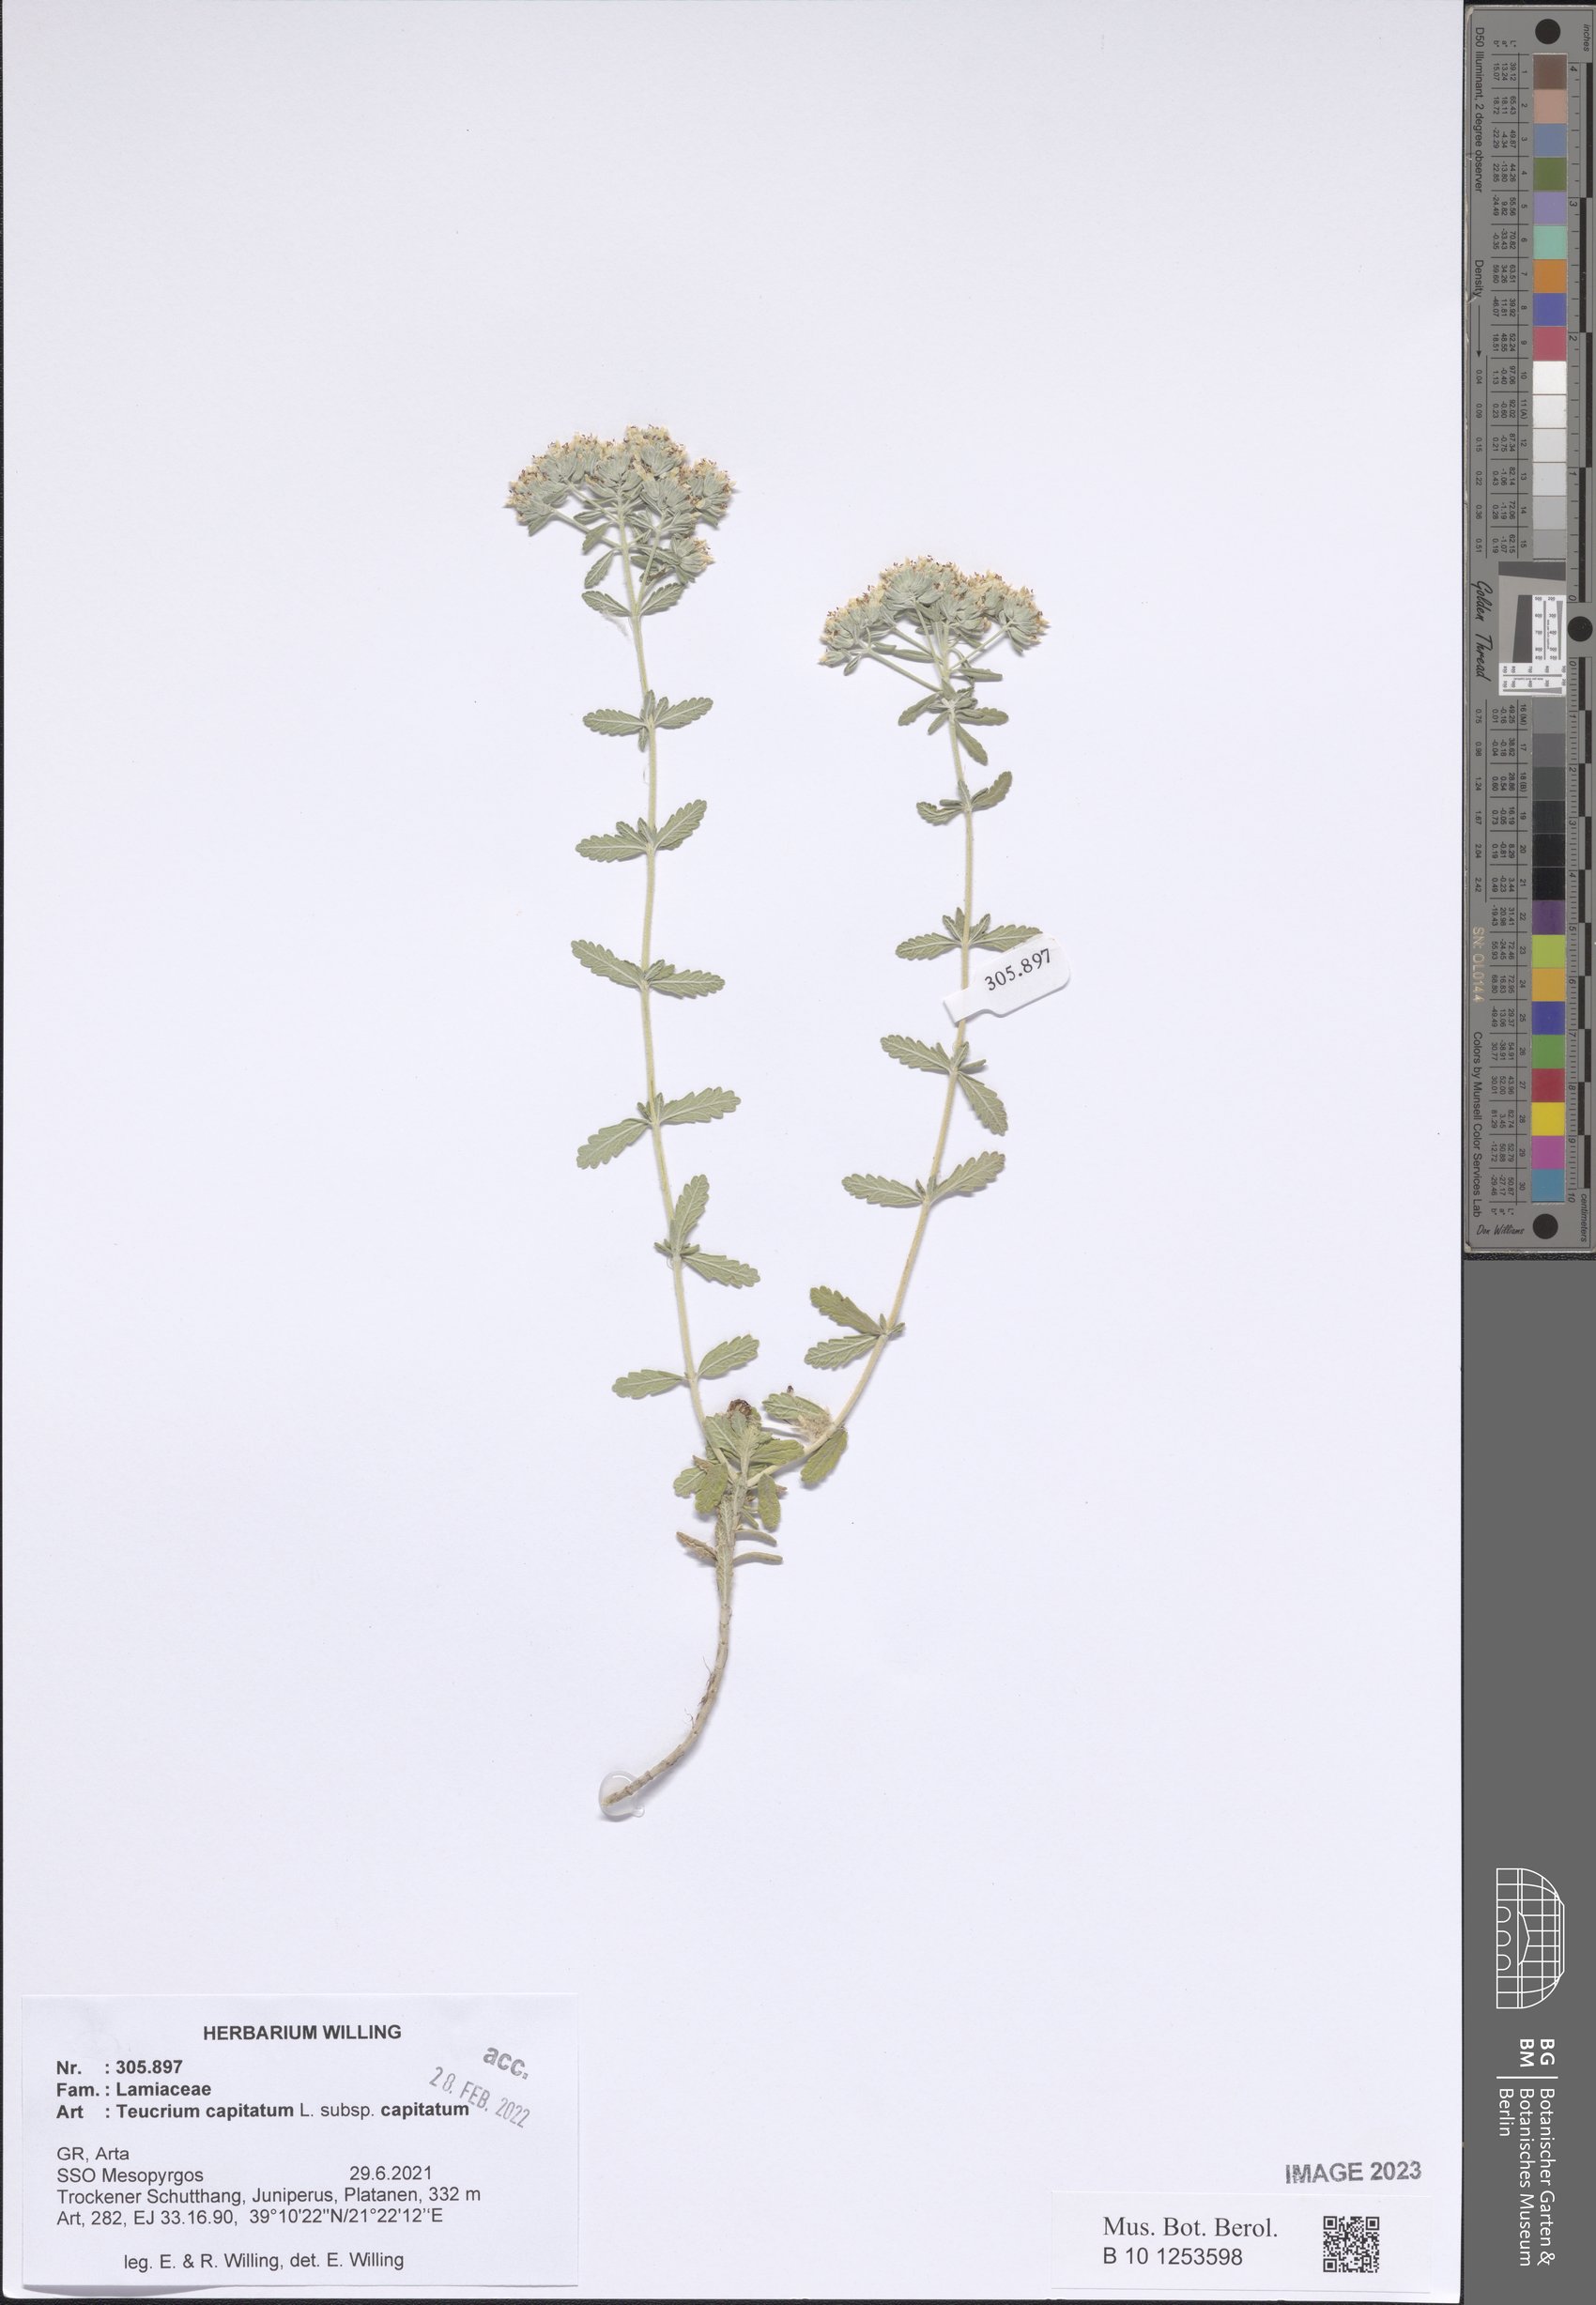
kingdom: Plantae
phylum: Tracheophyta
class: Magnoliopsida
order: Lamiales
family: Lamiaceae
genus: Teucrium
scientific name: Teucrium capitatum
